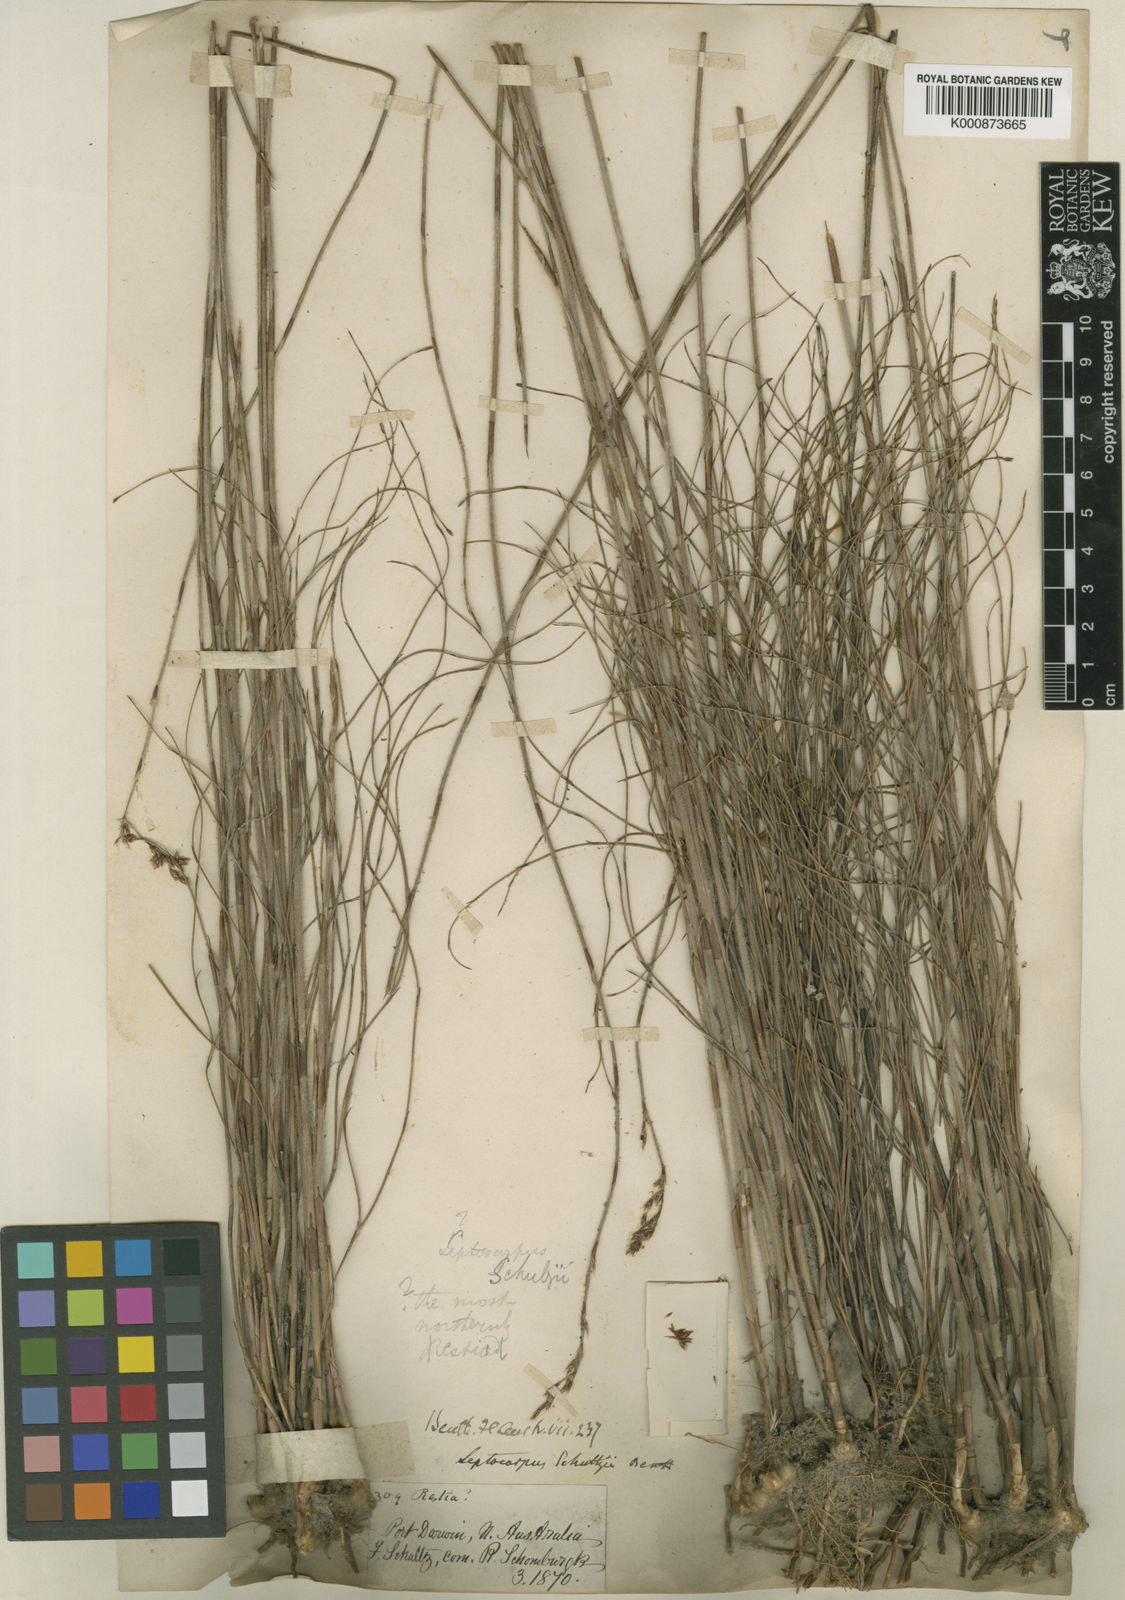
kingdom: Plantae
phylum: Tracheophyta
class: Liliopsida
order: Poales
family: Restionaceae
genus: Dapsilanthus
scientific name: Dapsilanthus spathaceus
